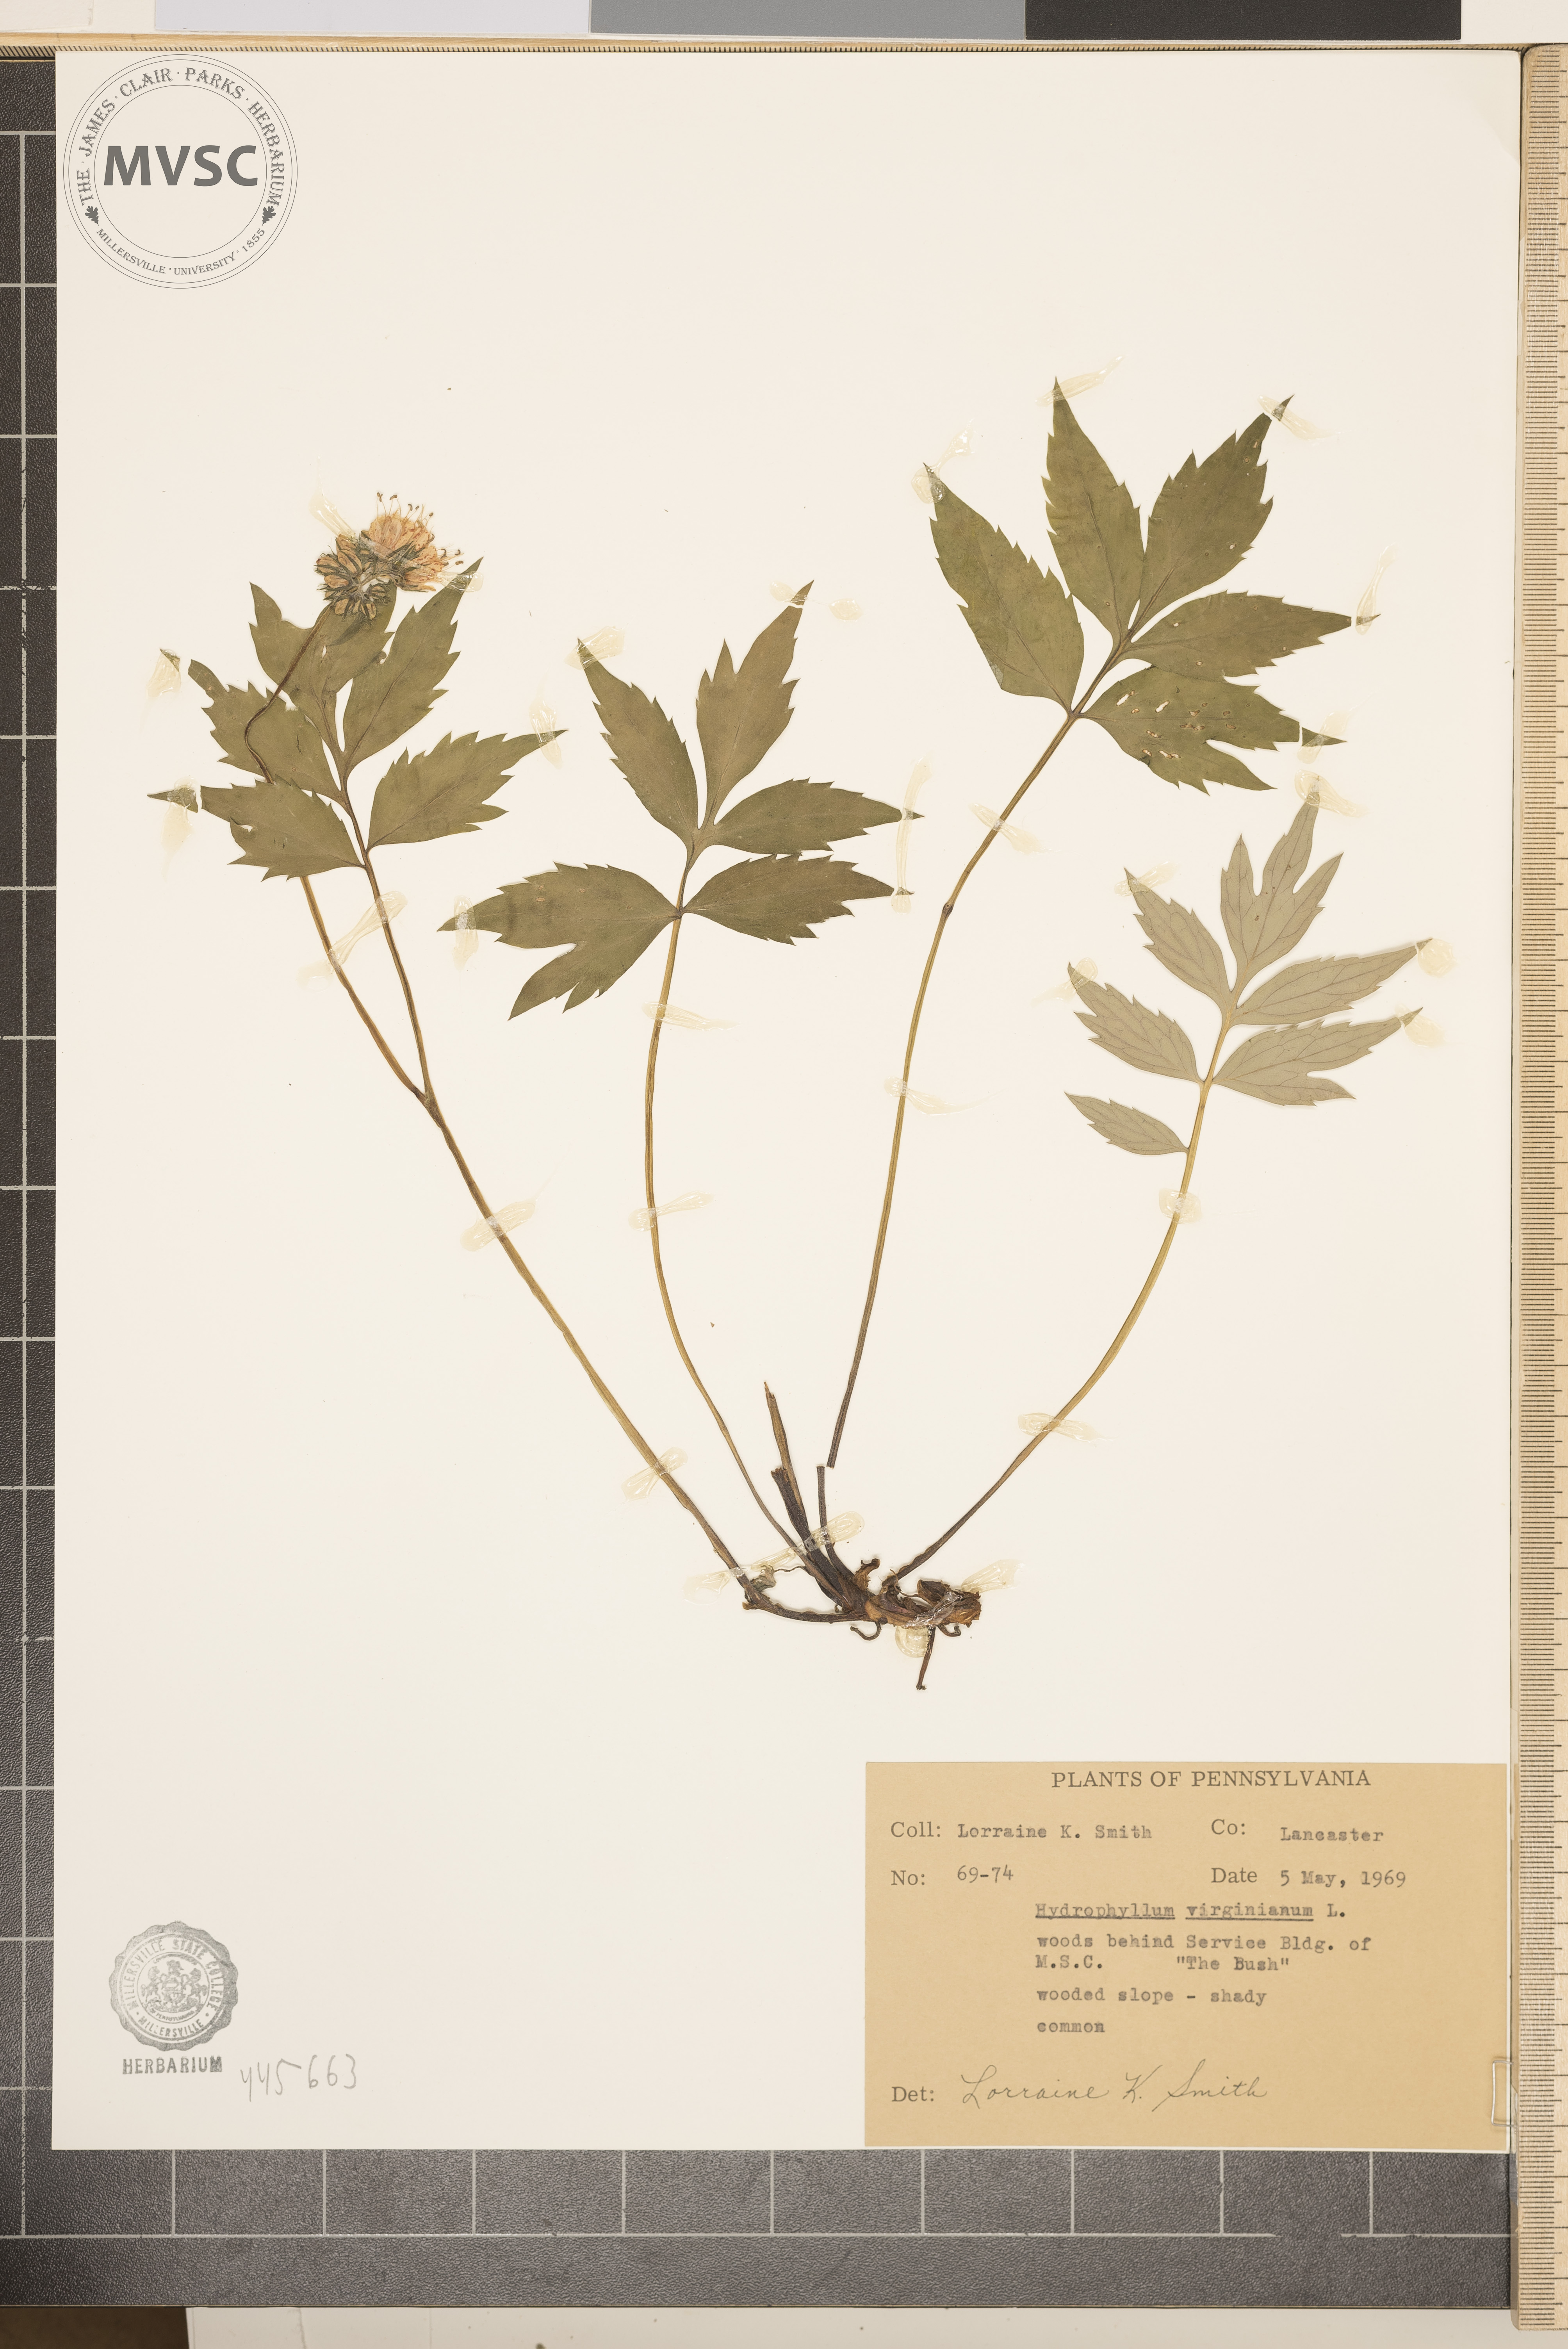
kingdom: Plantae
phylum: Tracheophyta
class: Magnoliopsida
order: Boraginales
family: Hydrophyllaceae
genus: Hydrophyllum
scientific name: Hydrophyllum virginianum
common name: Virginia waterleaf
